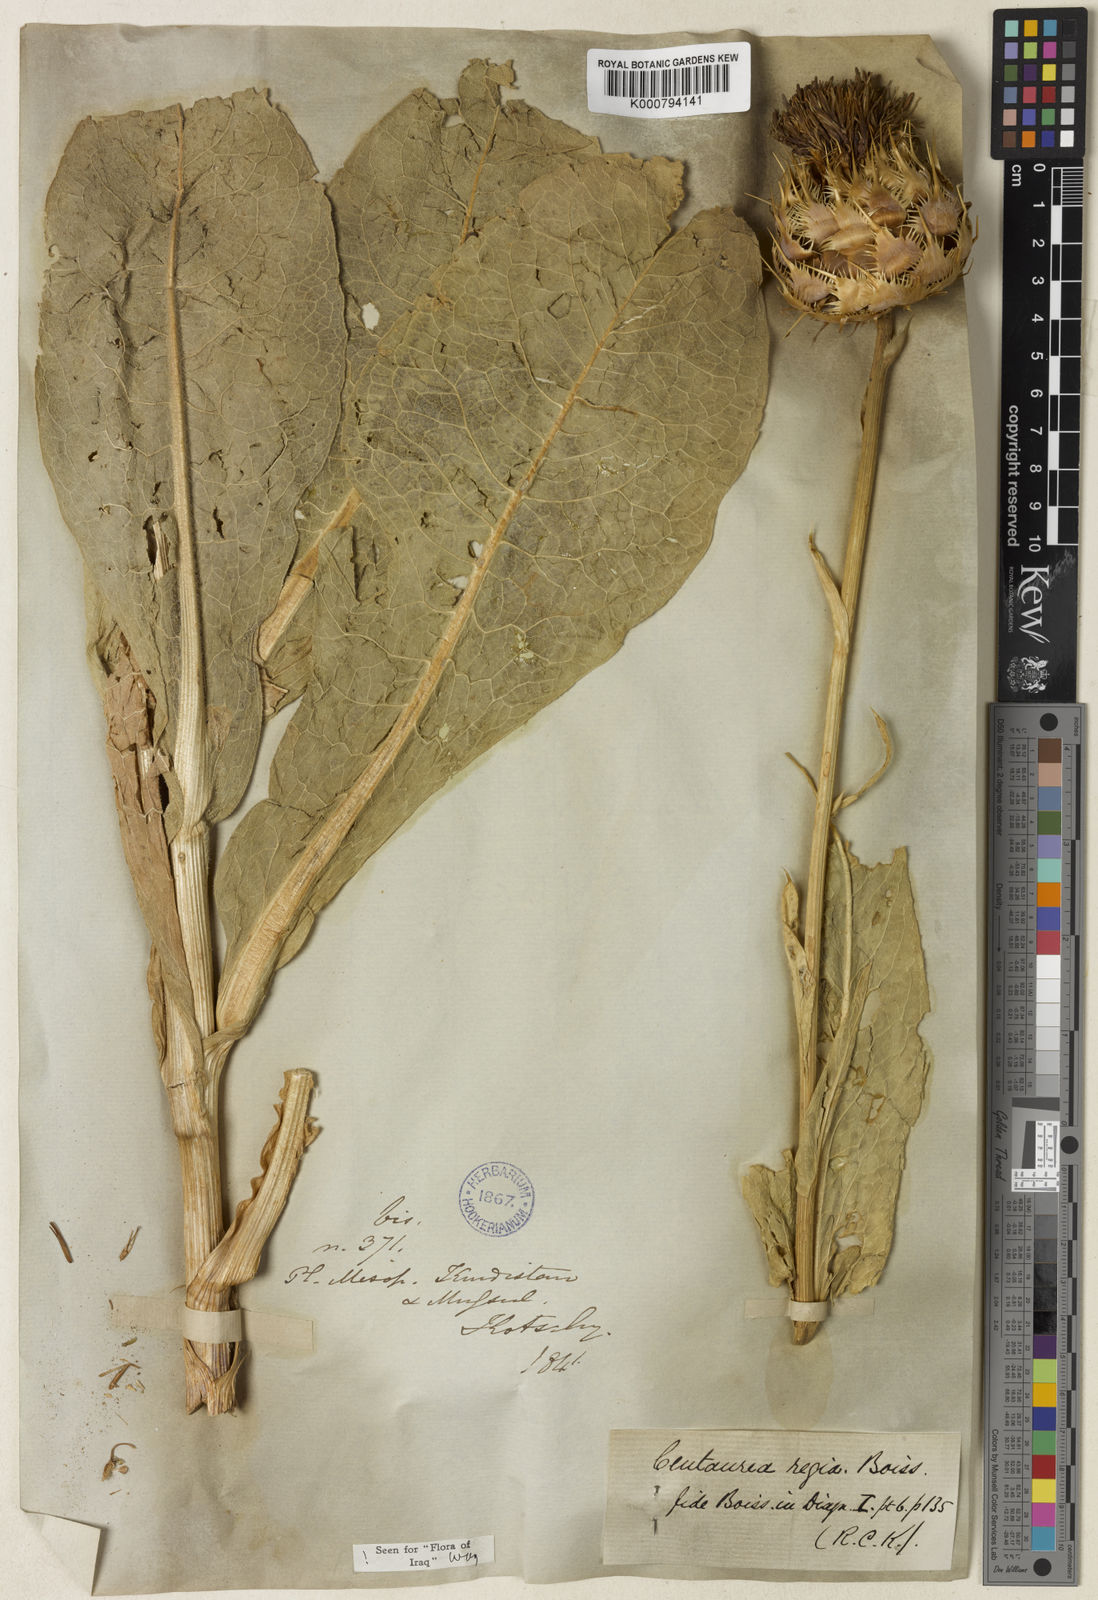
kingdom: Plantae
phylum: Tracheophyta
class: Magnoliopsida
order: Asterales
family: Asteraceae
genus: Centaurea
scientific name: Centaurea regia
